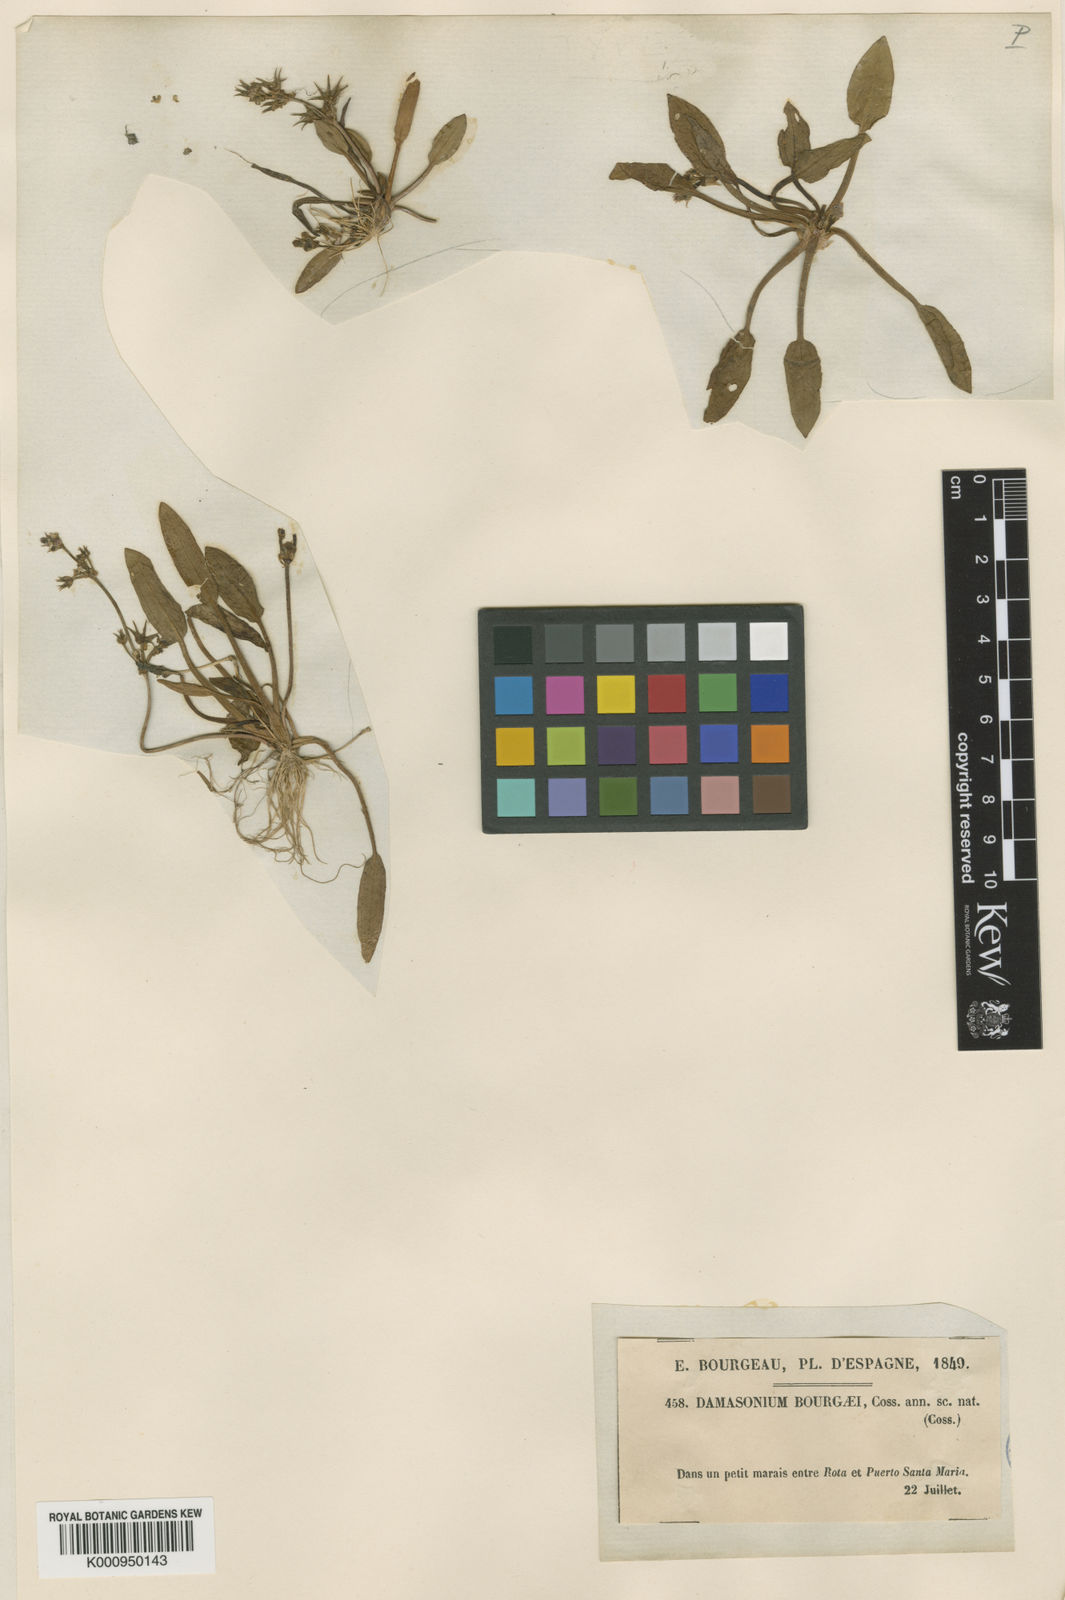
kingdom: Plantae
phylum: Tracheophyta
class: Liliopsida
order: Alismatales
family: Alismataceae
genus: Damasonium
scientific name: Damasonium bourgaei
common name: Starfruit
